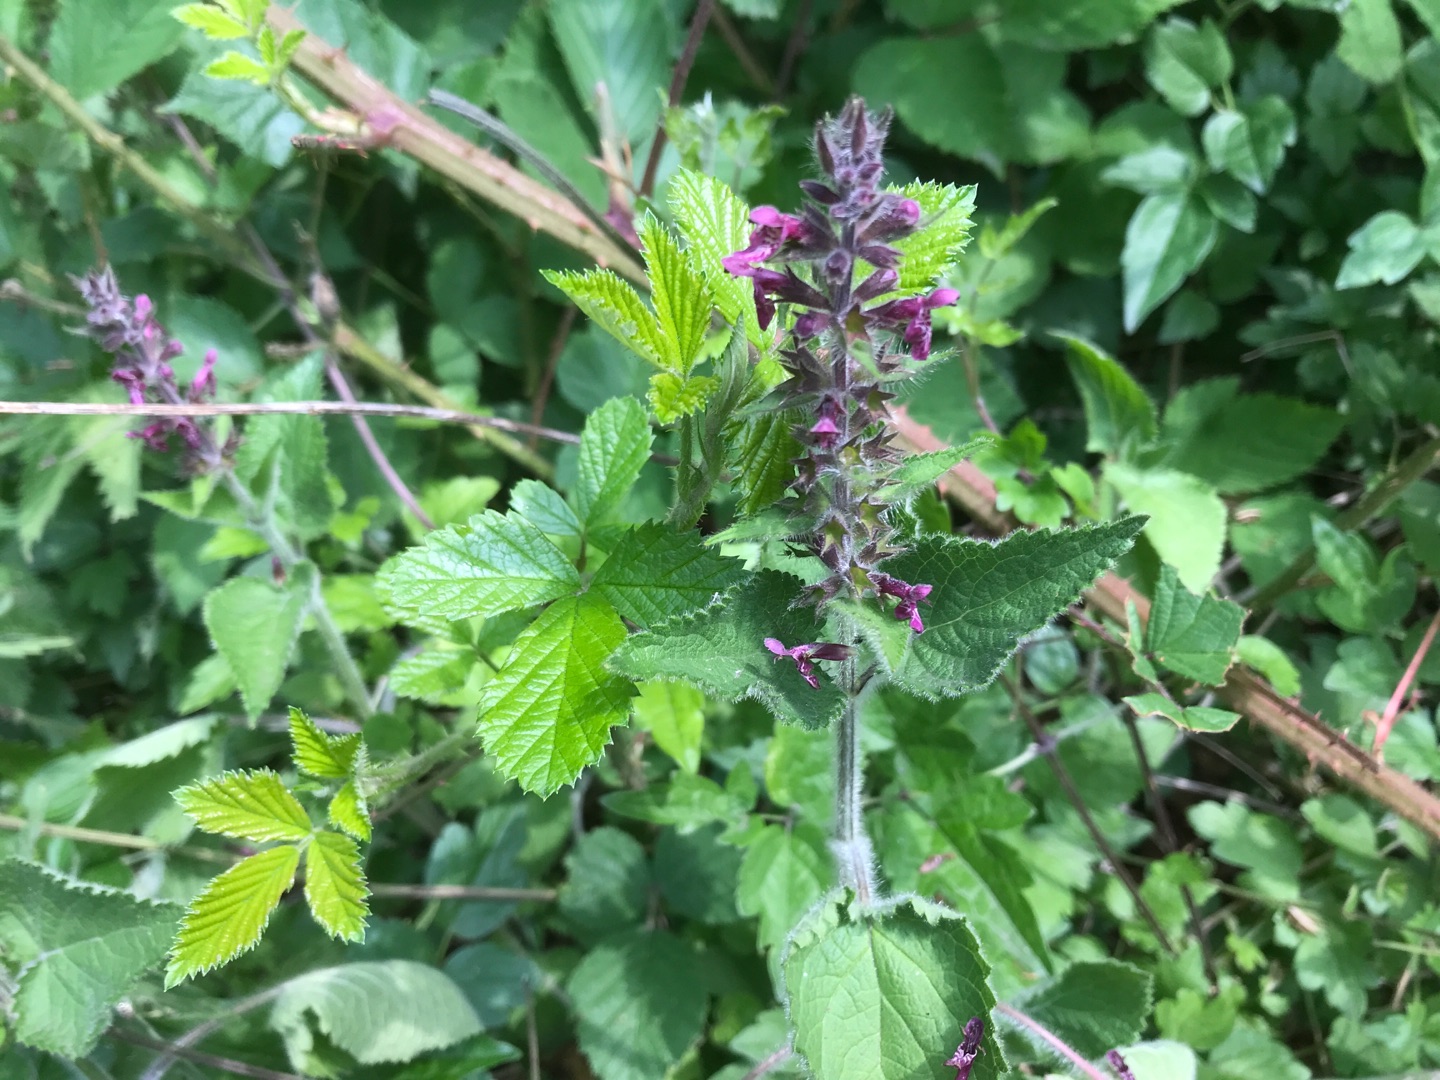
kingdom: Plantae
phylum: Tracheophyta
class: Magnoliopsida
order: Lamiales
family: Lamiaceae
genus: Stachys
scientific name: Stachys sylvatica
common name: Skov-galtetand
